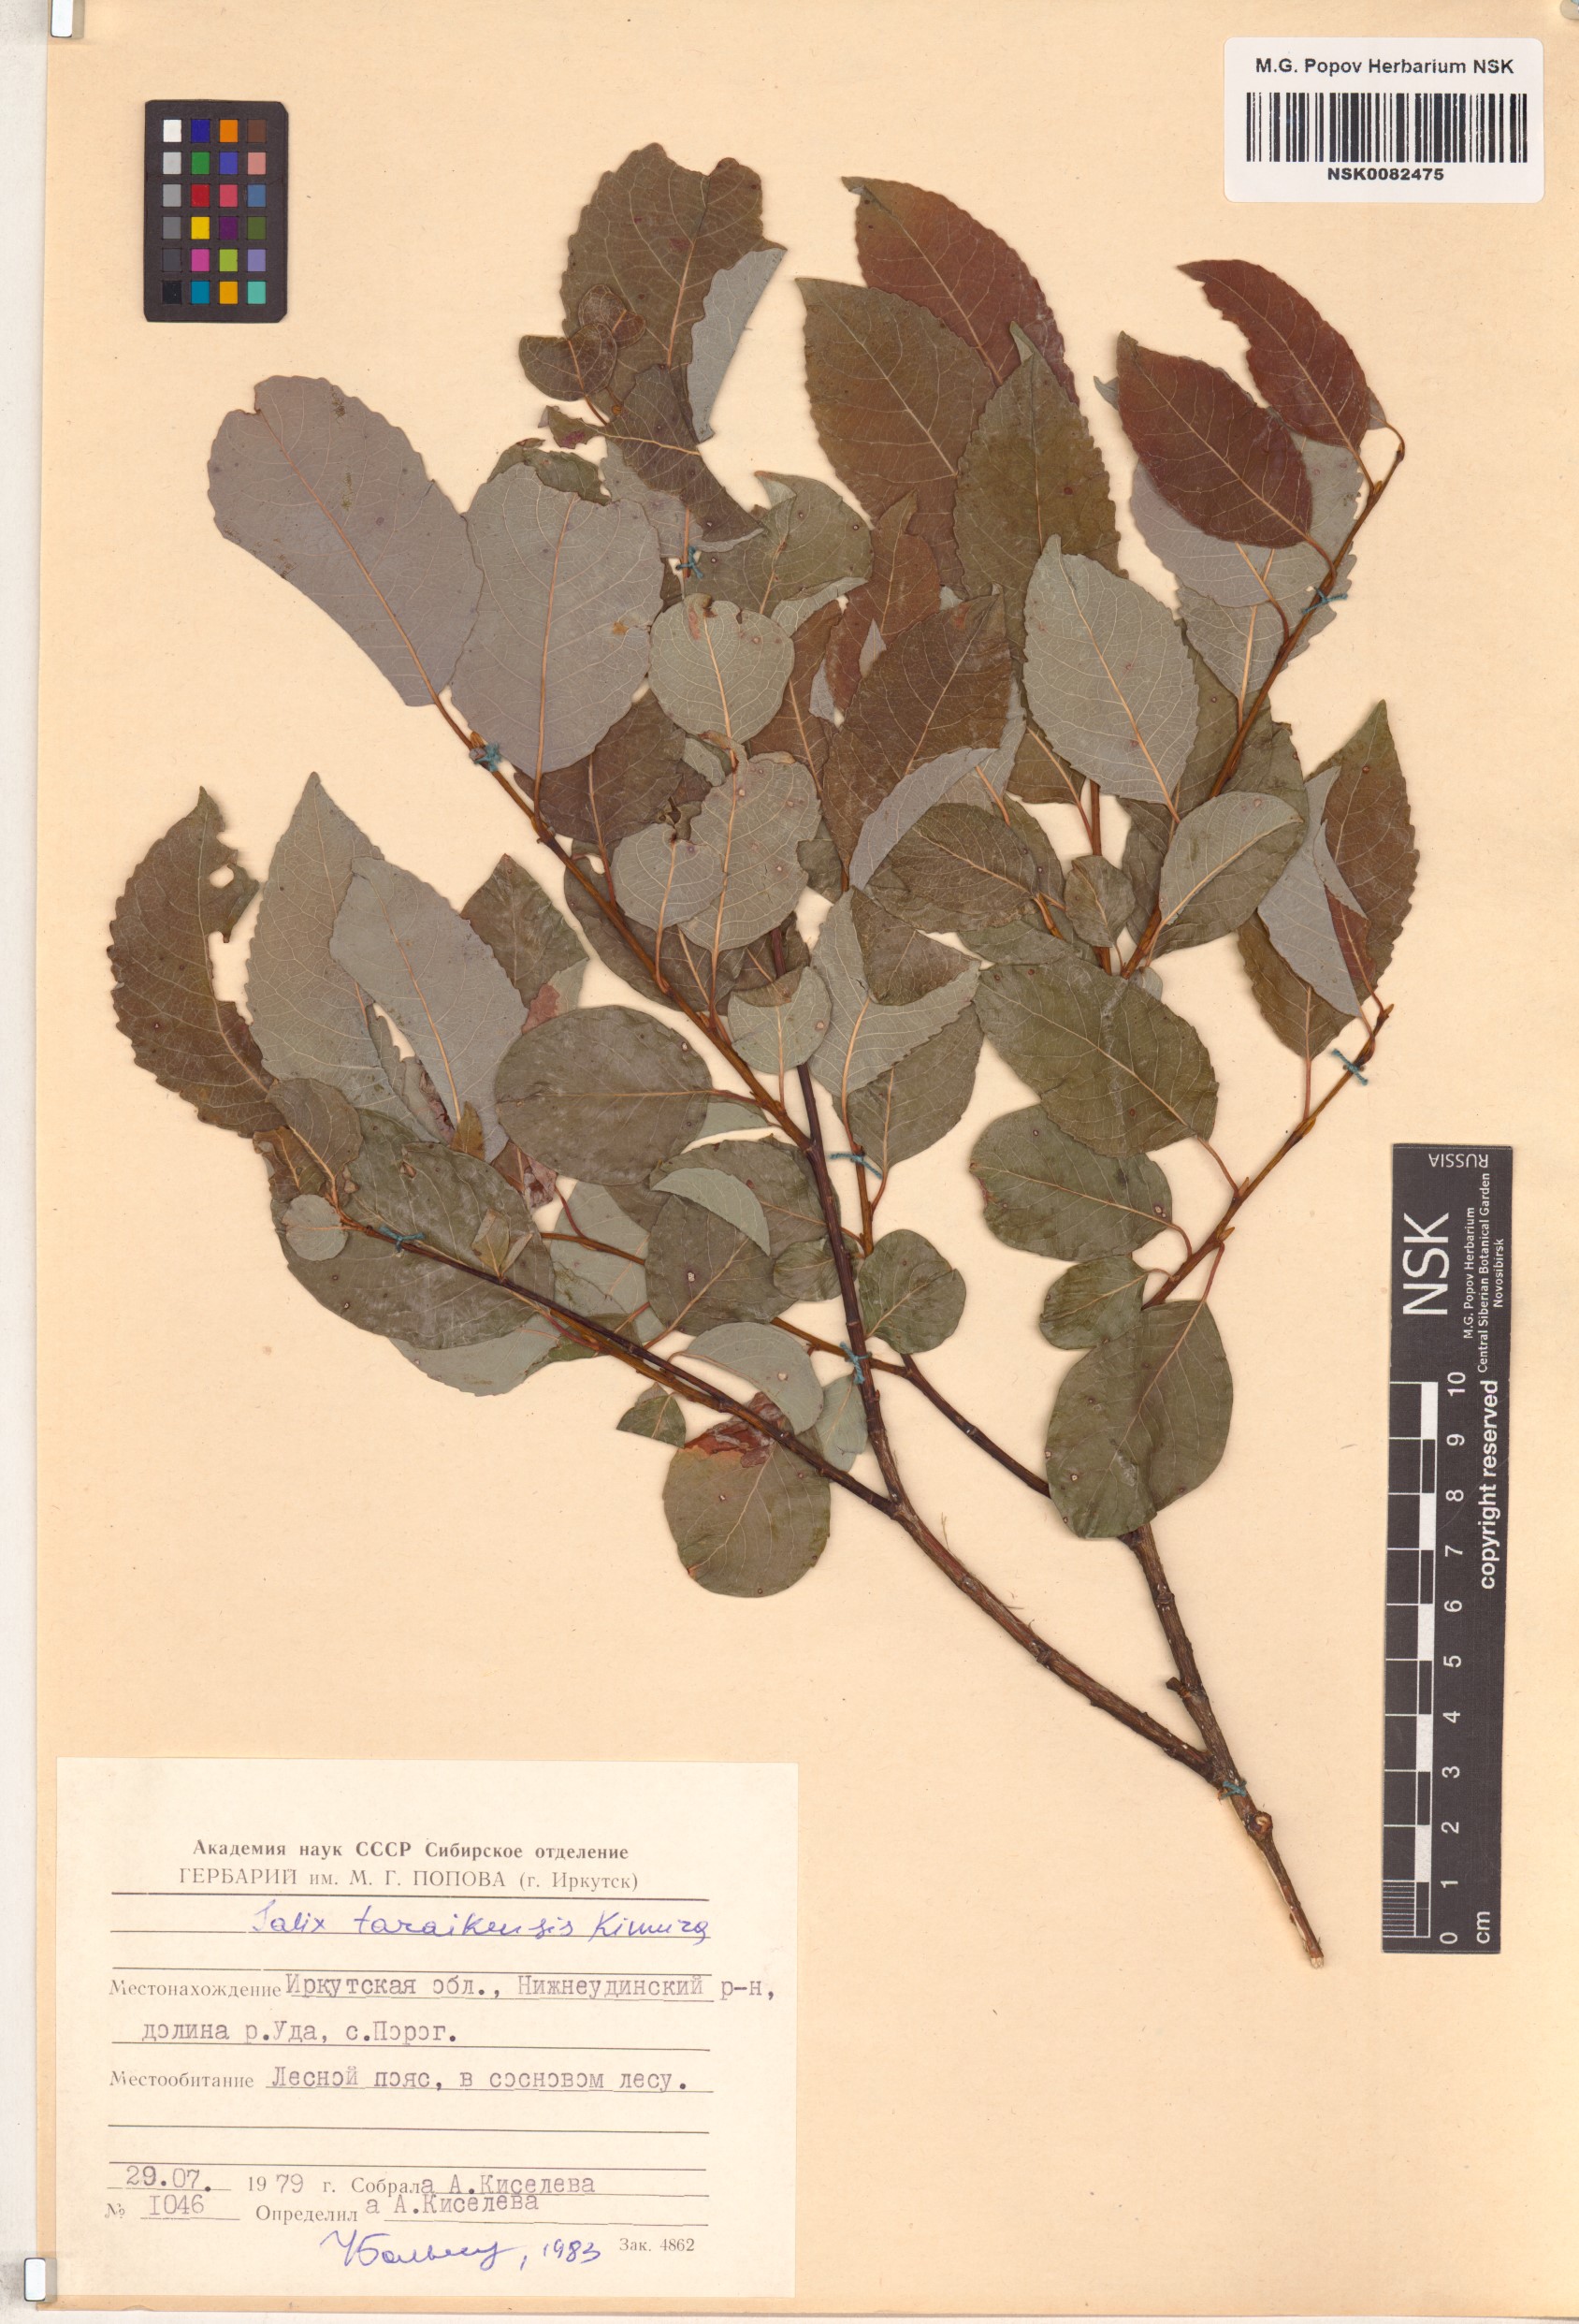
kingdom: Plantae
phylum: Tracheophyta
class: Magnoliopsida
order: Malpighiales
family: Salicaceae
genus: Salix
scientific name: Salix taraikensis
